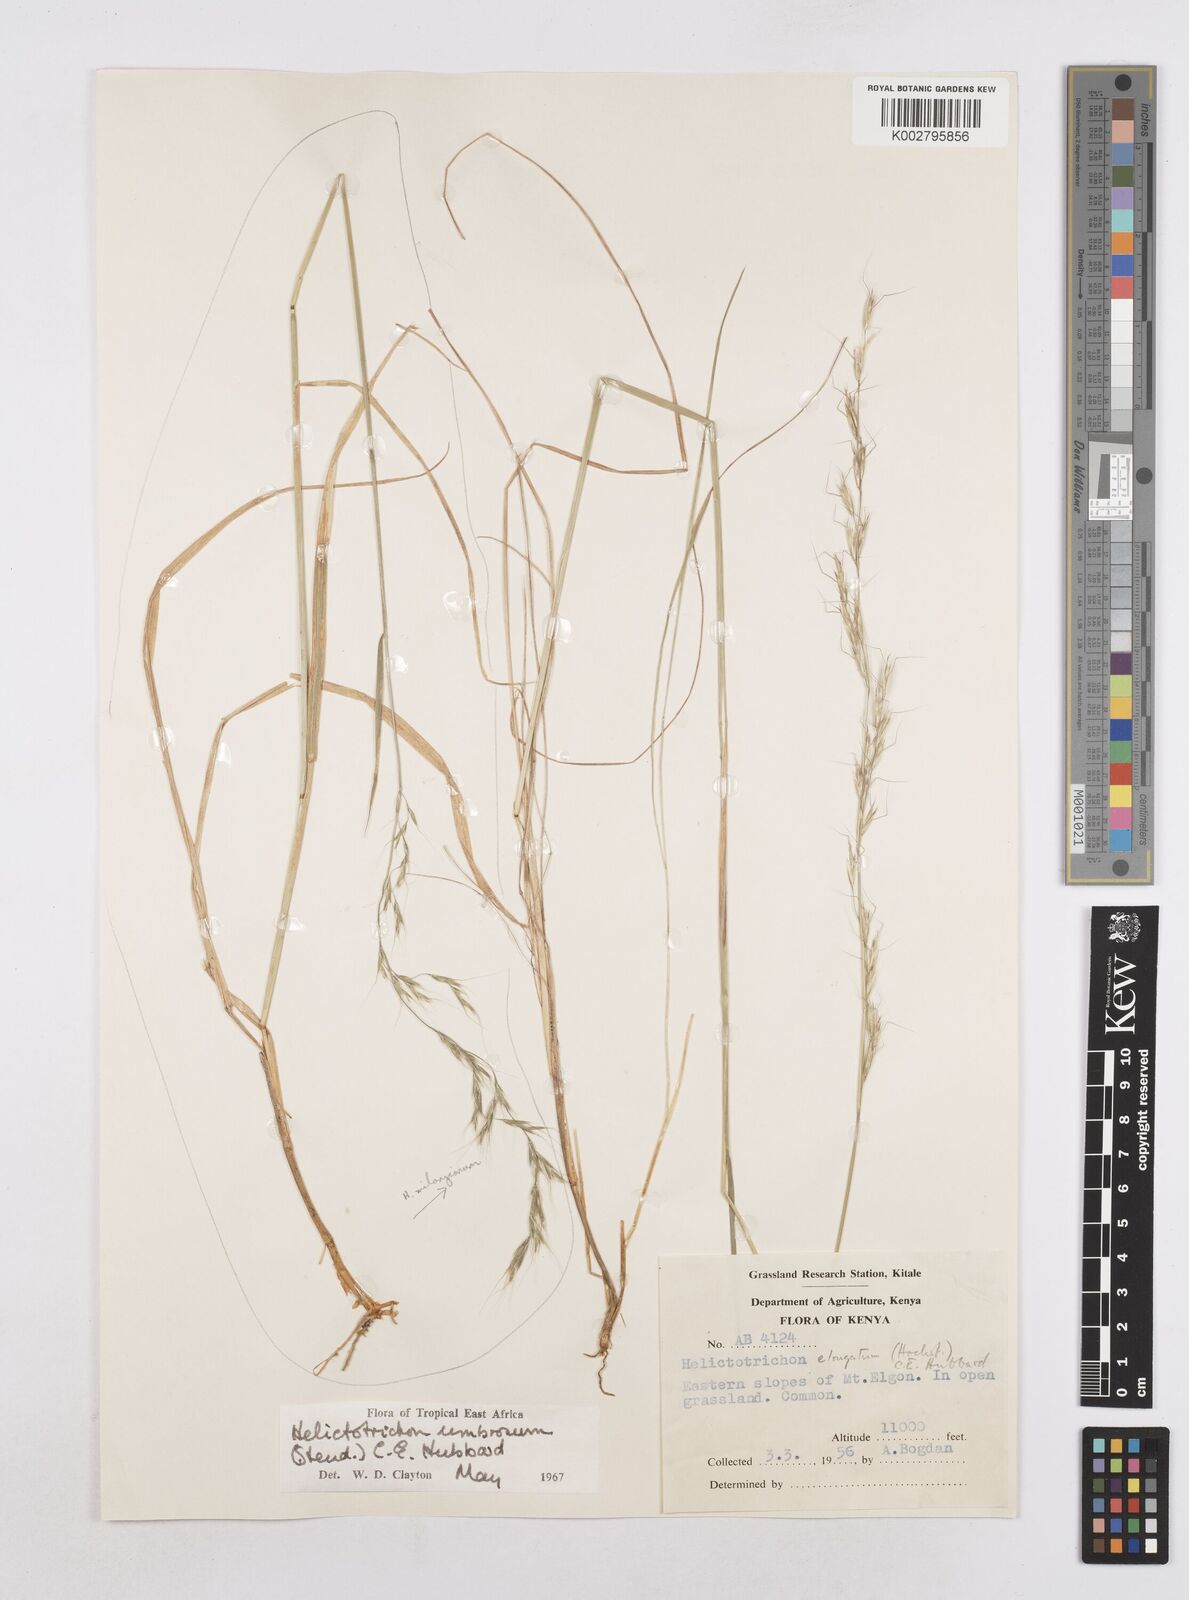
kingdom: Plantae
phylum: Tracheophyta
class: Liliopsida
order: Poales
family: Poaceae
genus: Trisetopsis
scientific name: Trisetopsis umbrosa
